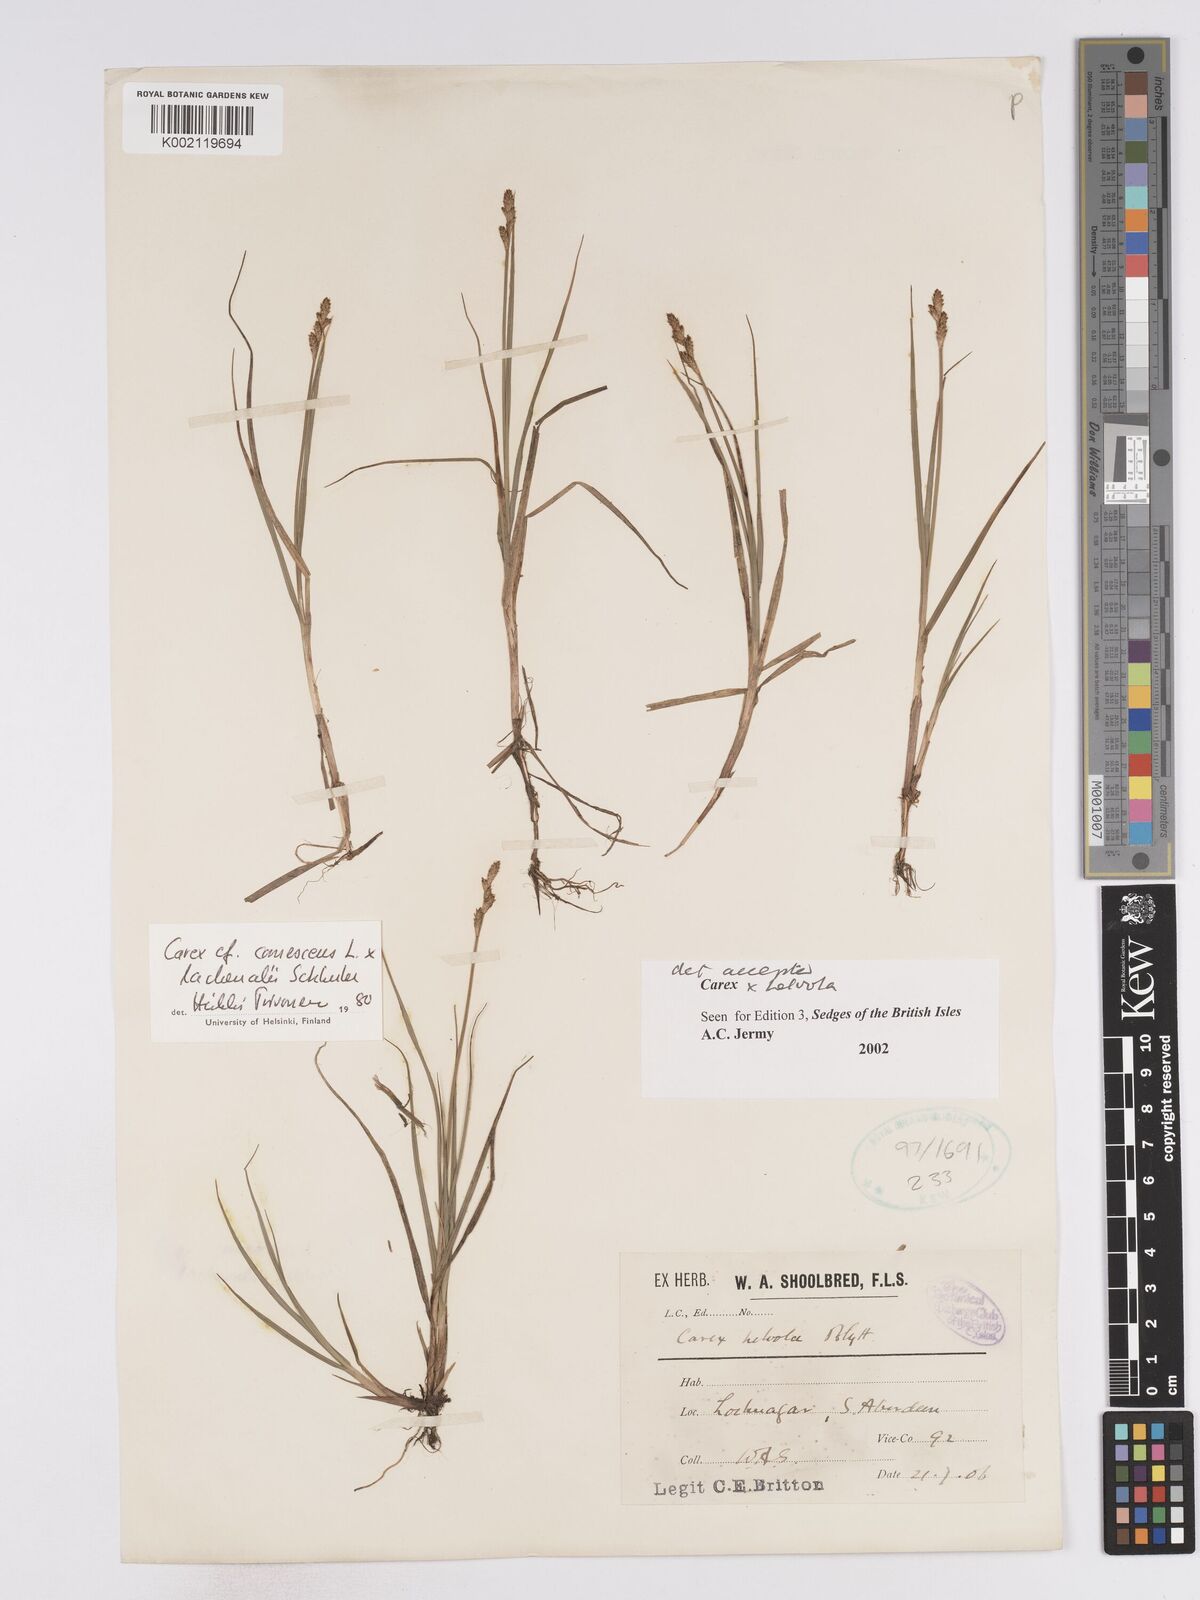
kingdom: Plantae
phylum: Tracheophyta
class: Liliopsida
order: Poales
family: Cyperaceae
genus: Carex
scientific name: Carex
